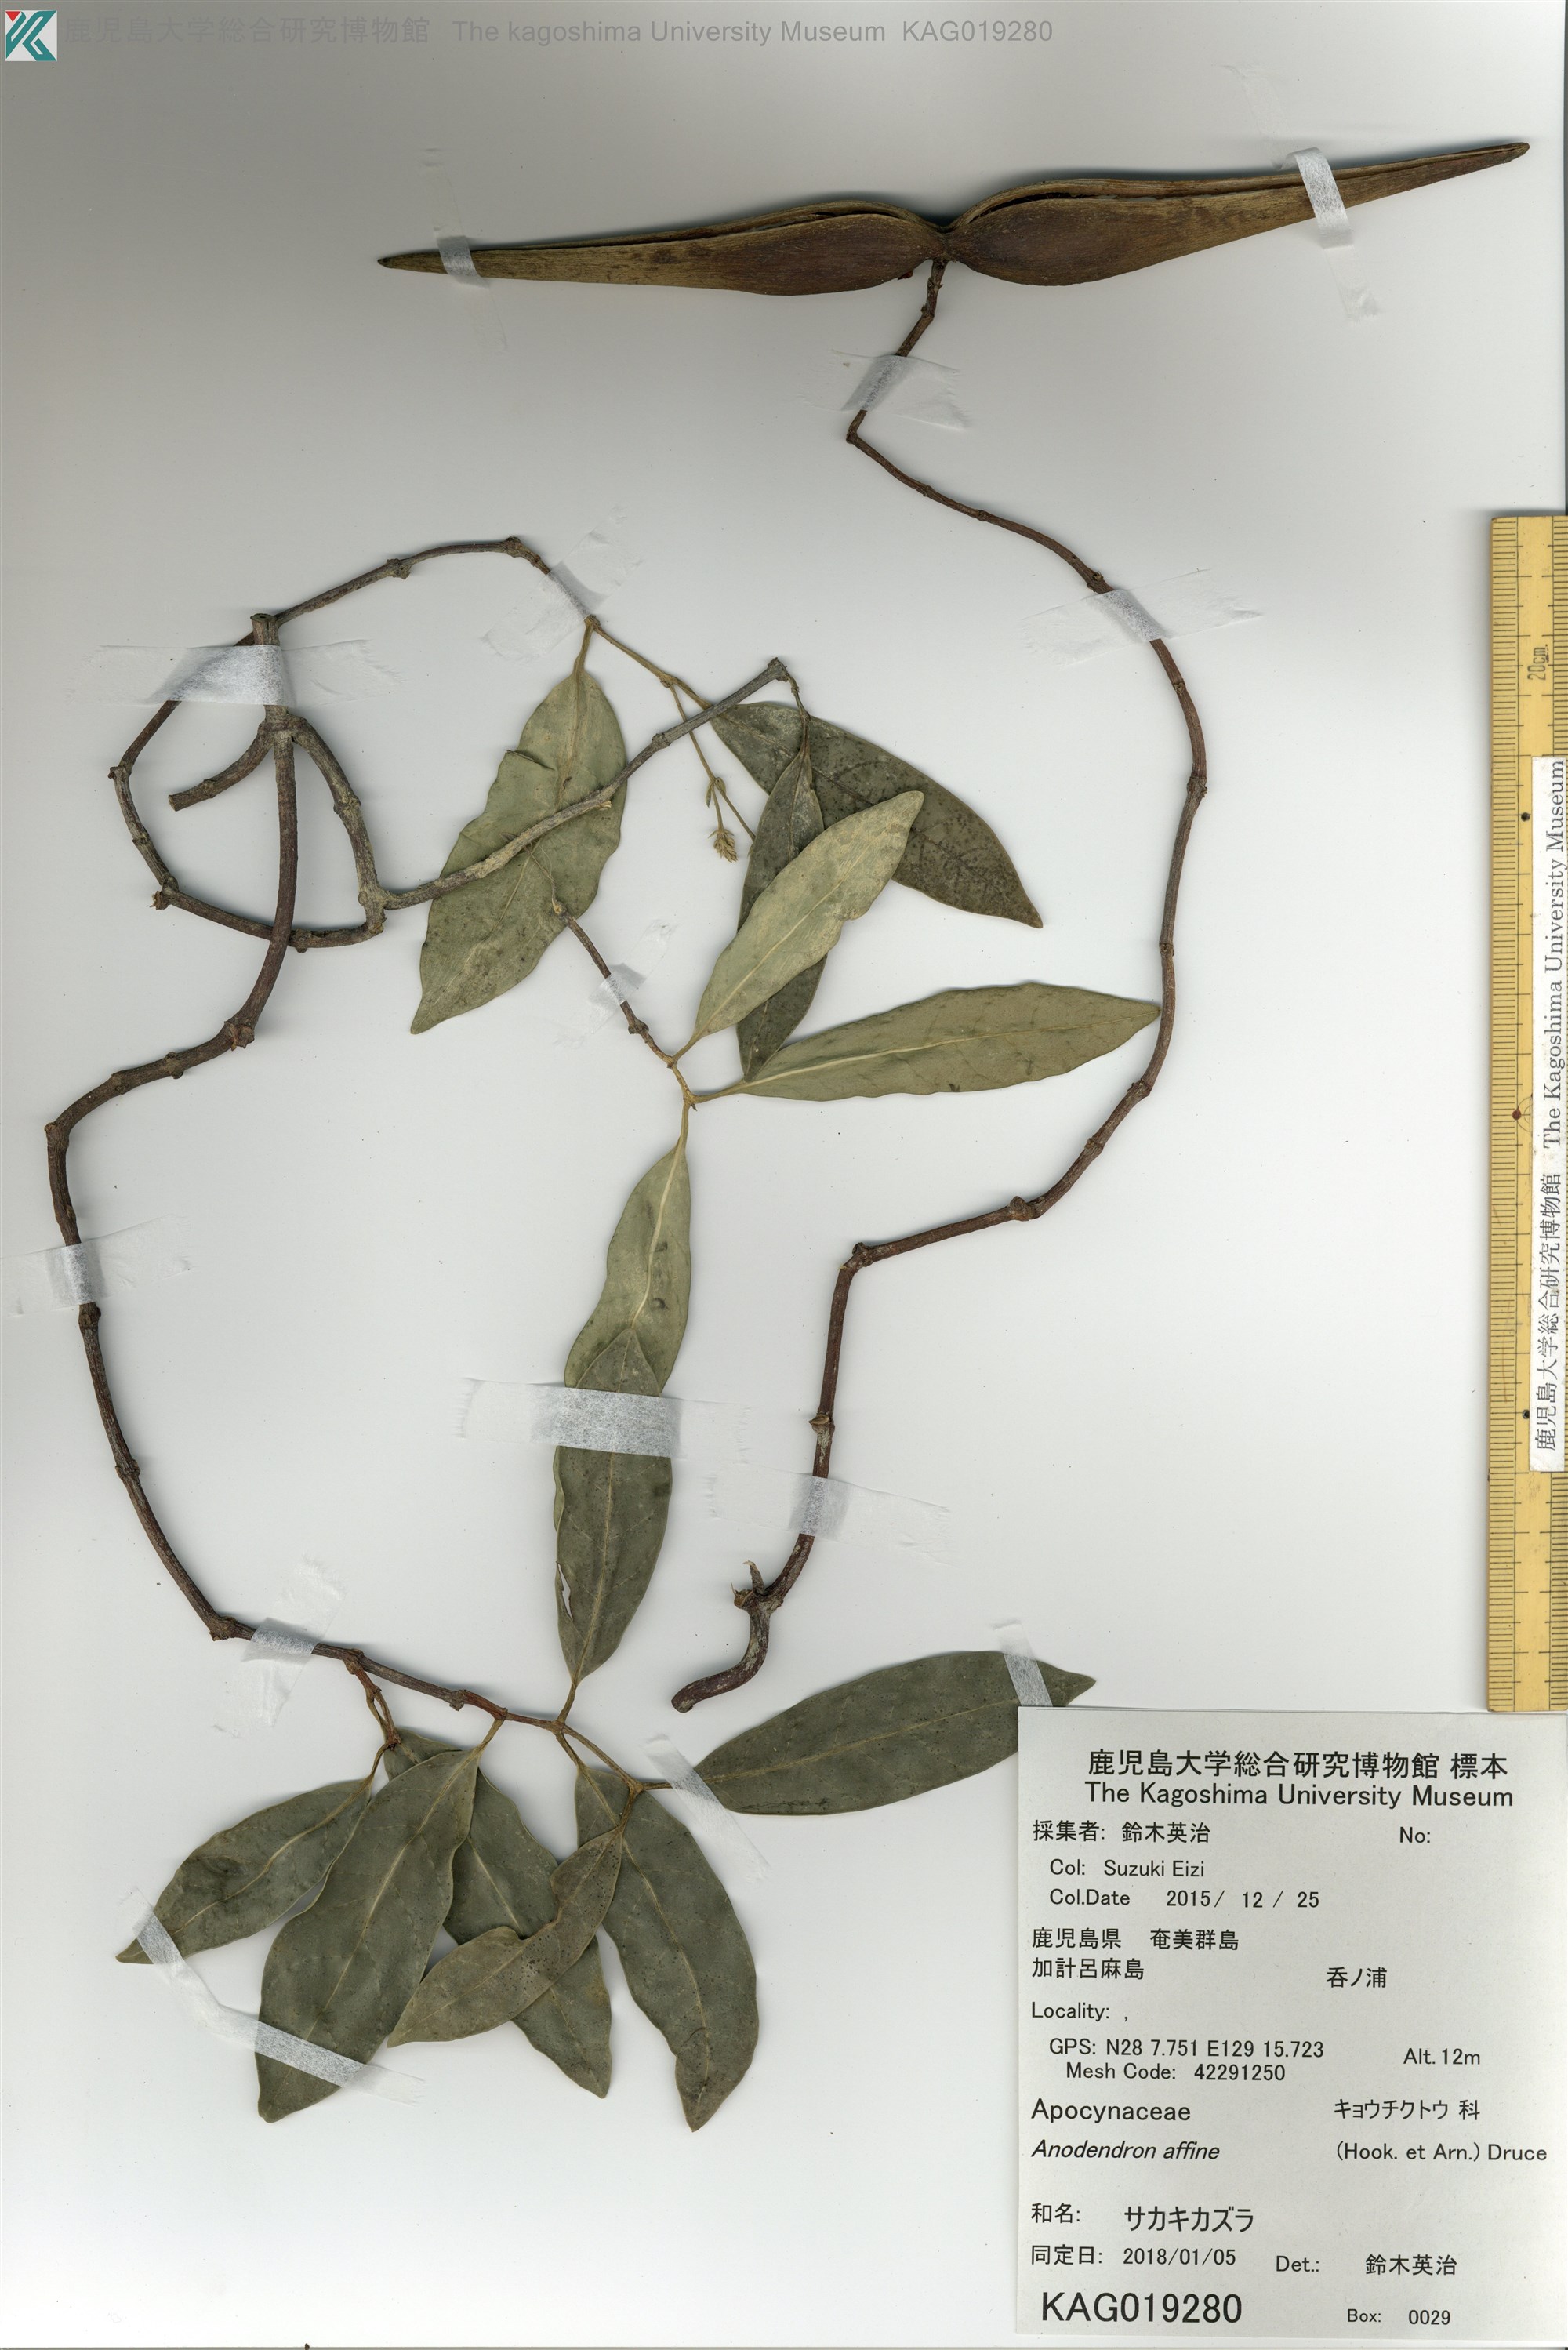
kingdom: Plantae
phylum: Tracheophyta
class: Magnoliopsida
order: Gentianales
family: Apocynaceae
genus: Anodendron
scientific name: Anodendron affine
